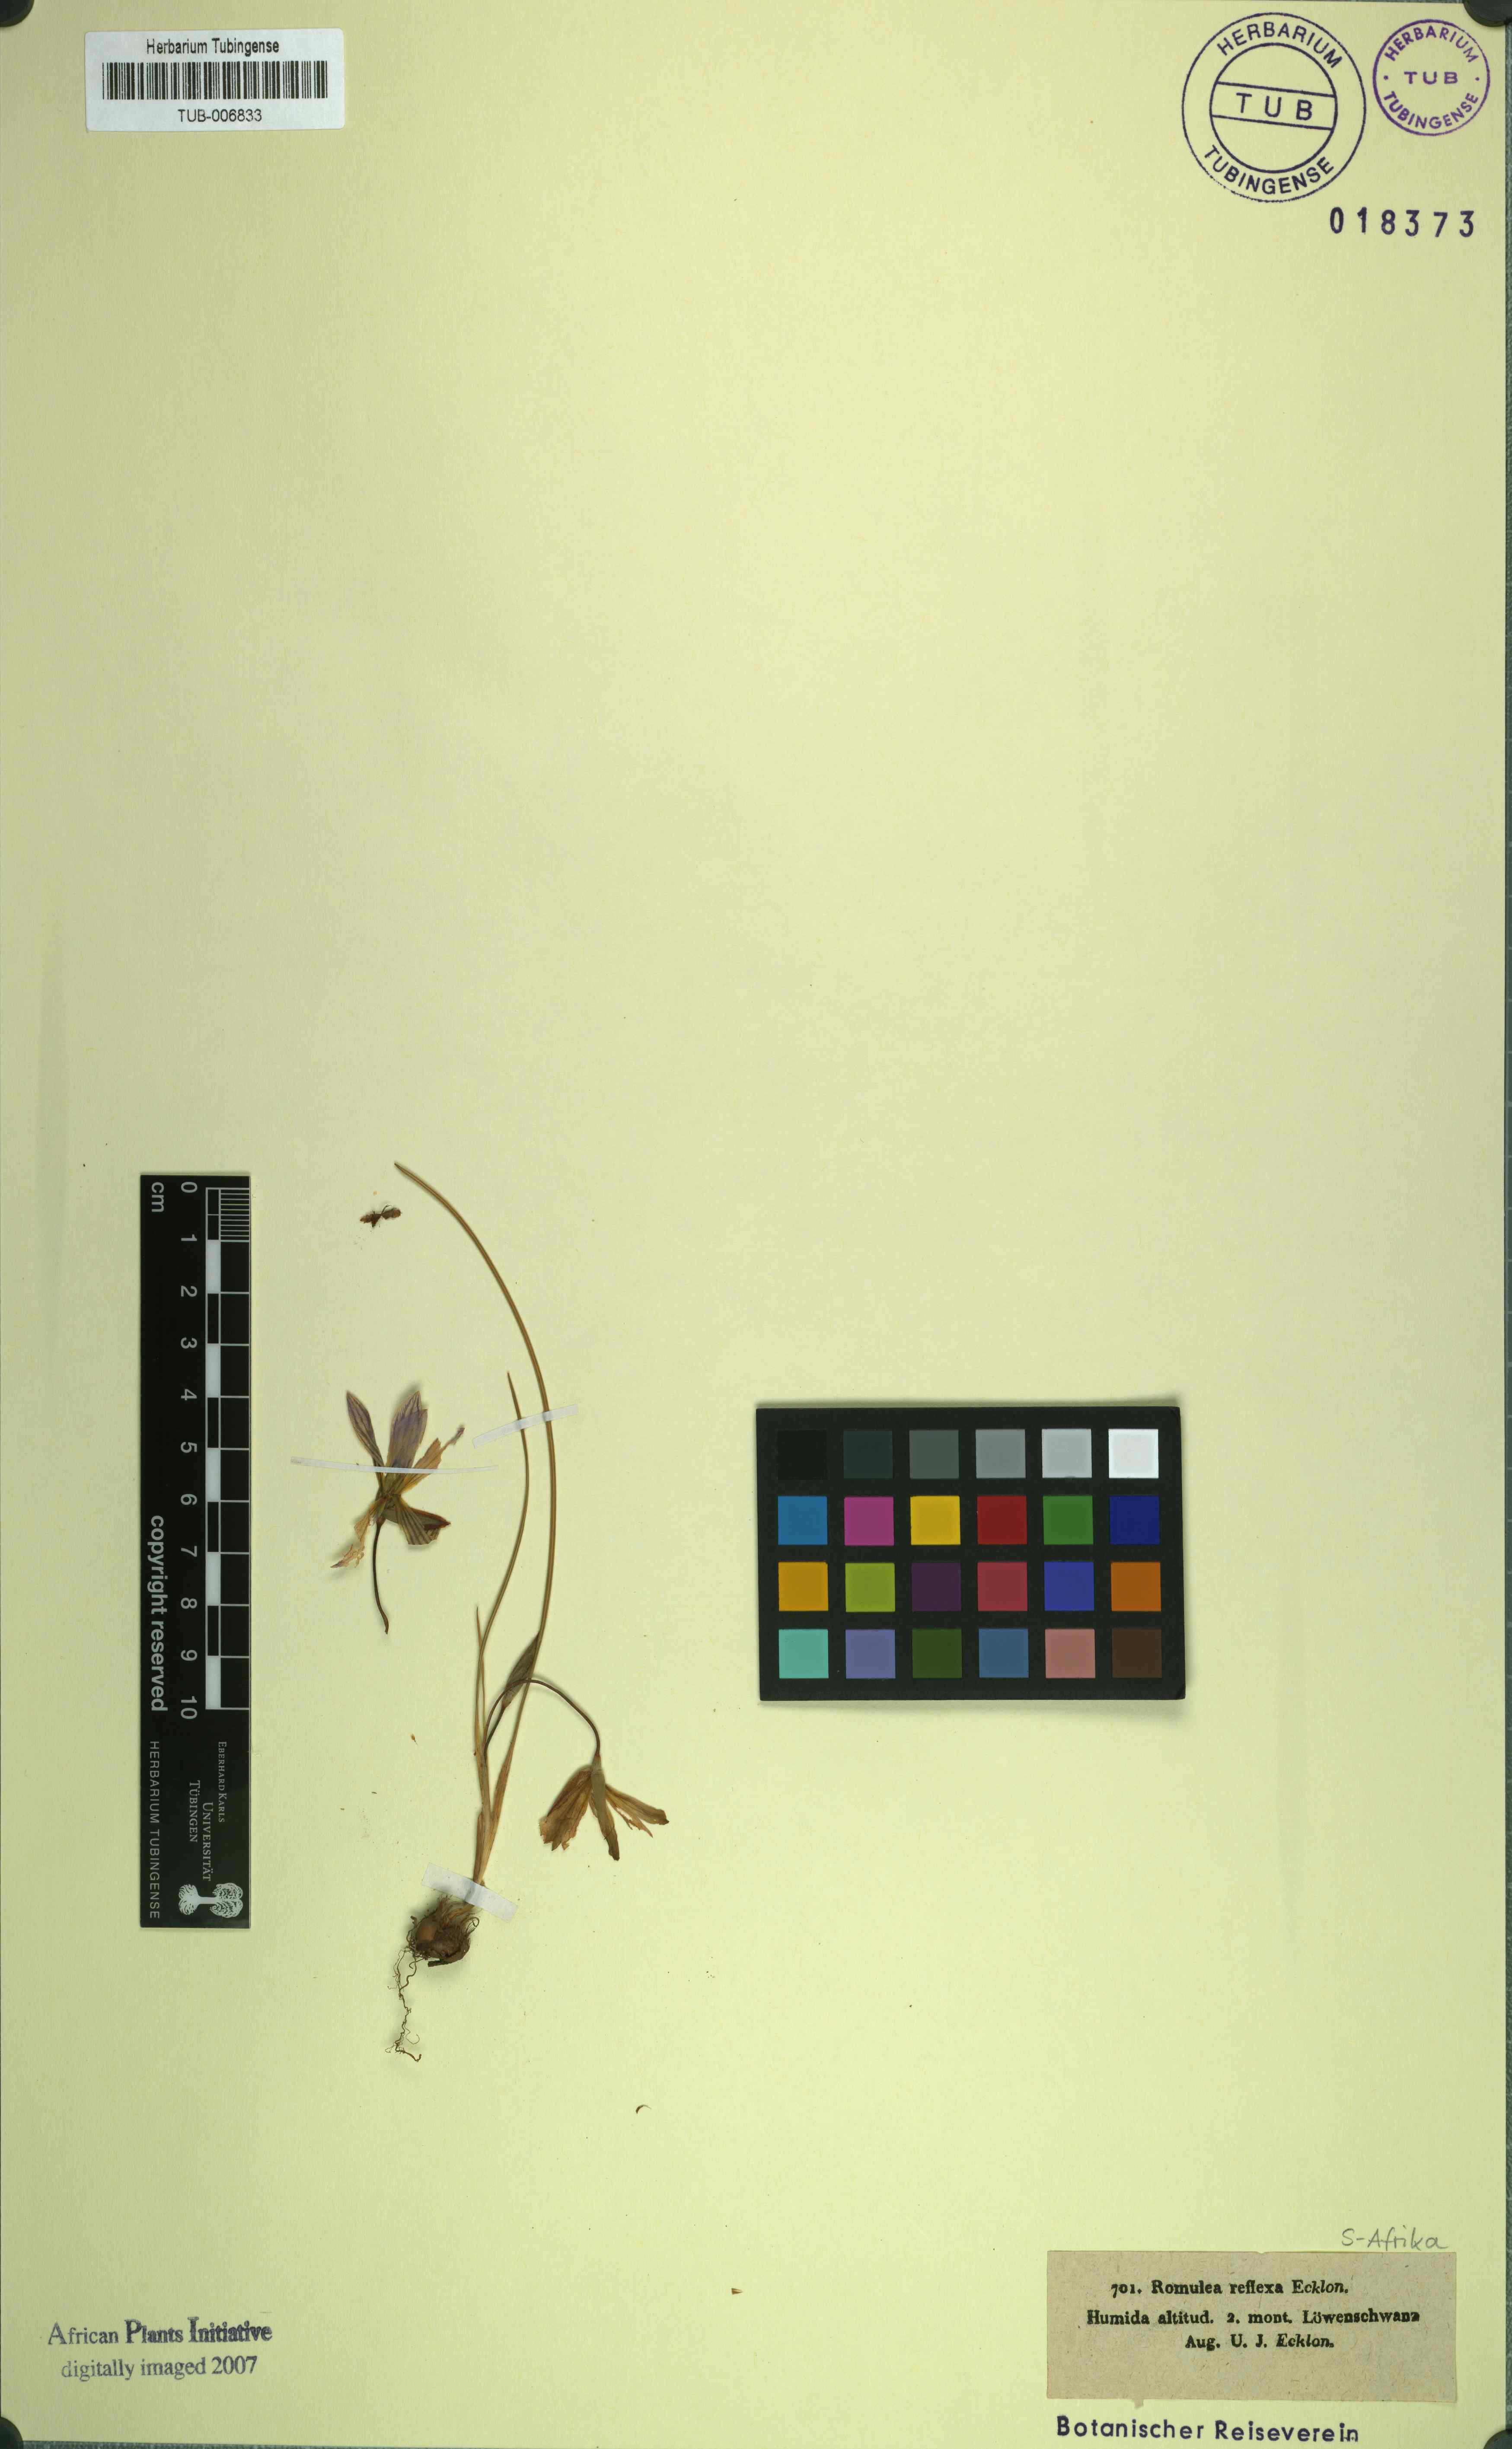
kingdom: Plantae
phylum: Tracheophyta
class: Liliopsida
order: Asparagales
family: Iridaceae
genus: Romulea
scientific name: Romulea flava
